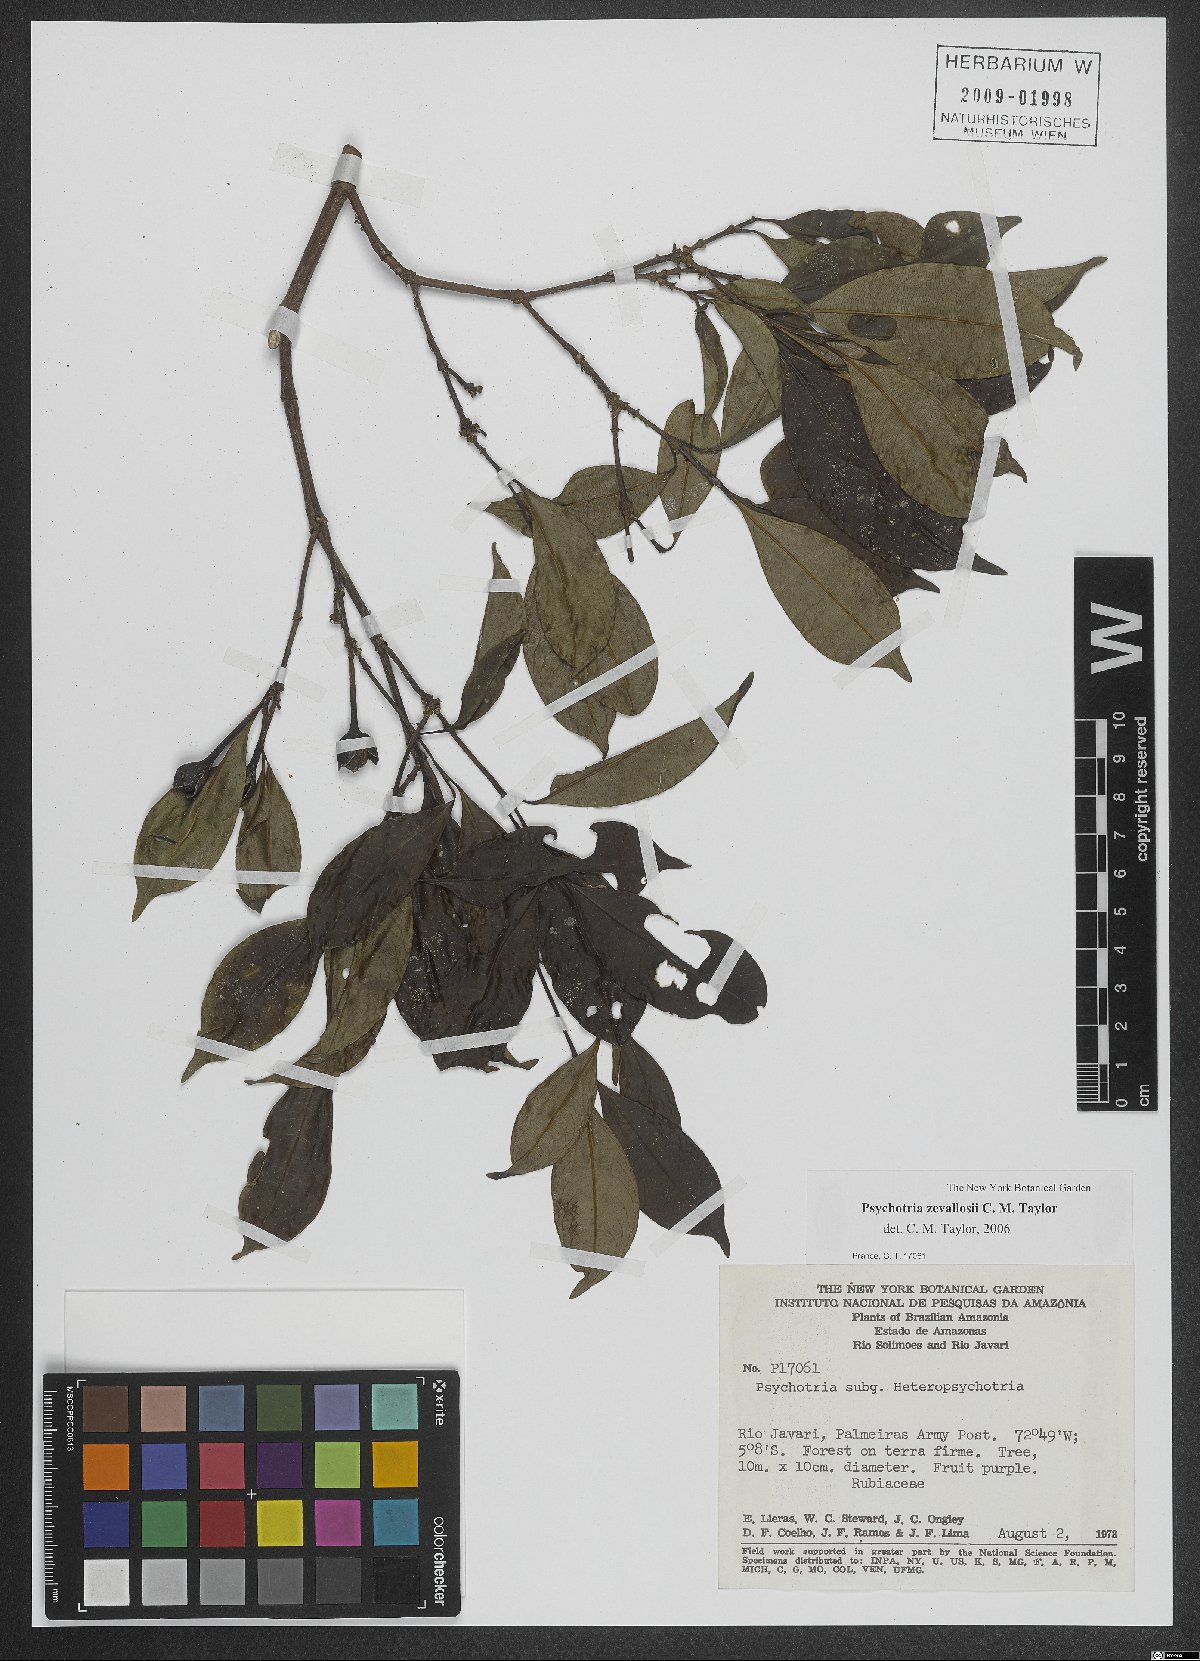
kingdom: Plantae
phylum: Tracheophyta
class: Magnoliopsida
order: Gentianales
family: Rubiaceae
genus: Palicourea
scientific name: Palicourea zevallosii
